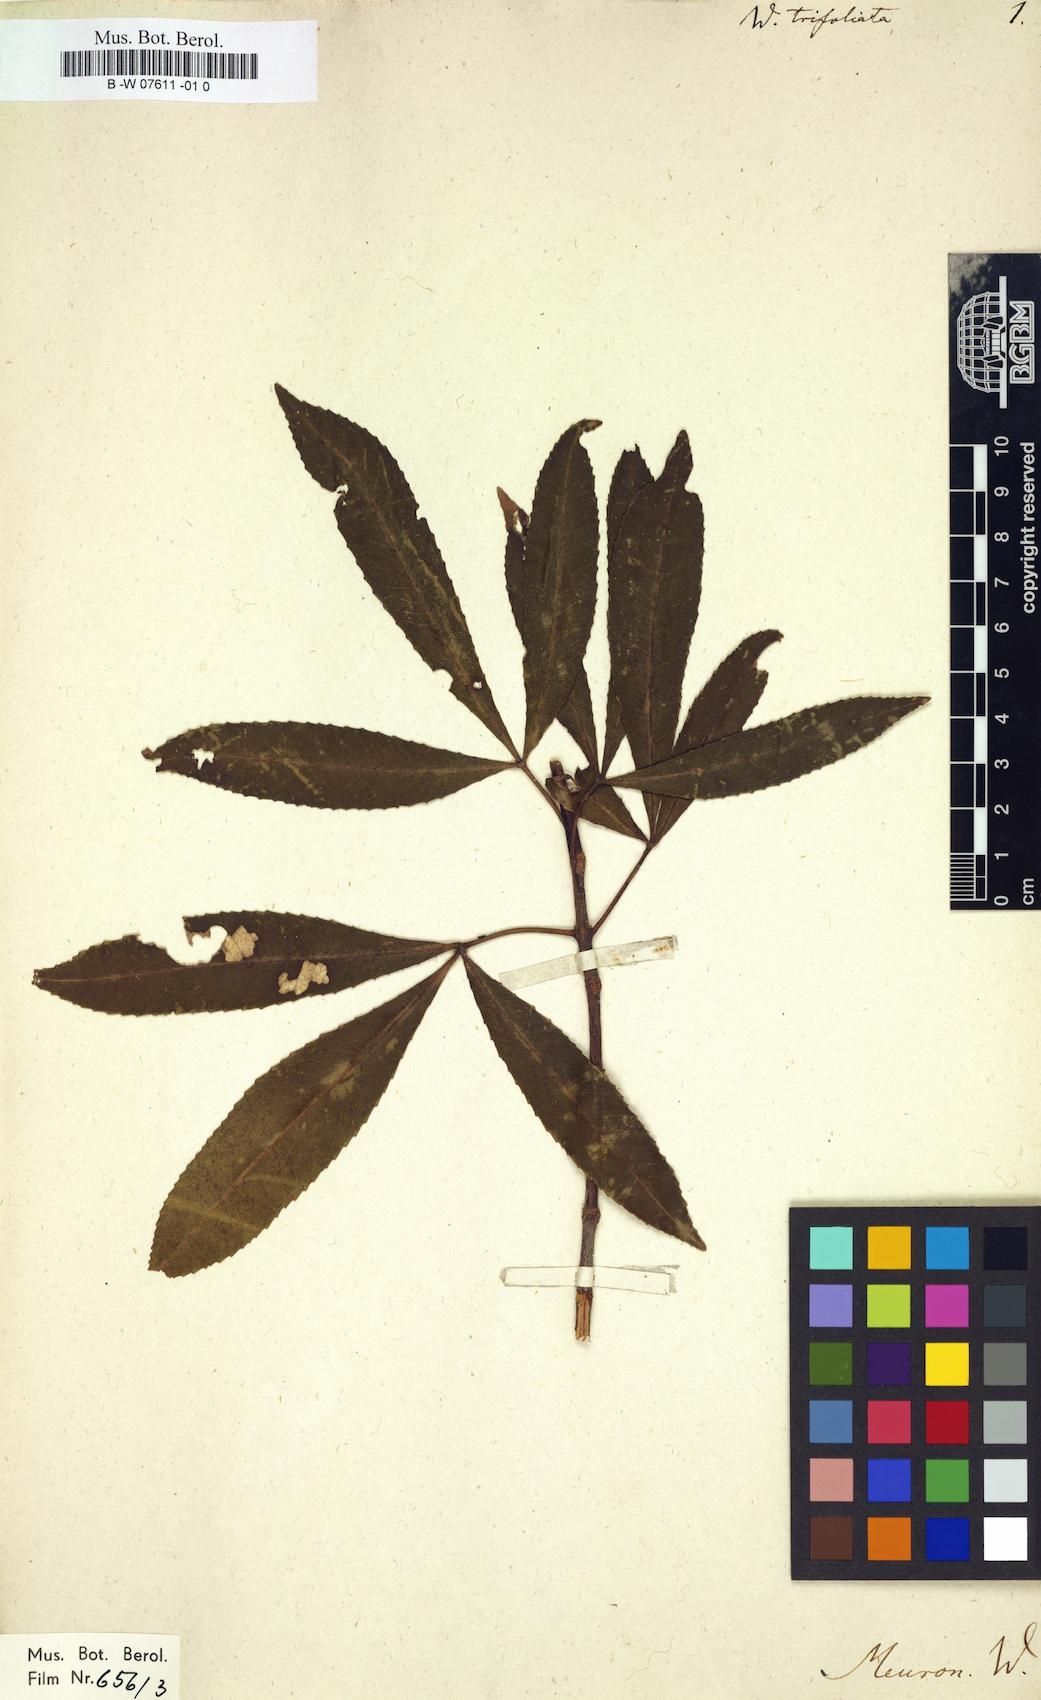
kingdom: Plantae
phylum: Tracheophyta
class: Magnoliopsida
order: Oxalidales
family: Cunoniaceae
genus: Weinmannia
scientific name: Weinmannia trifoliata
